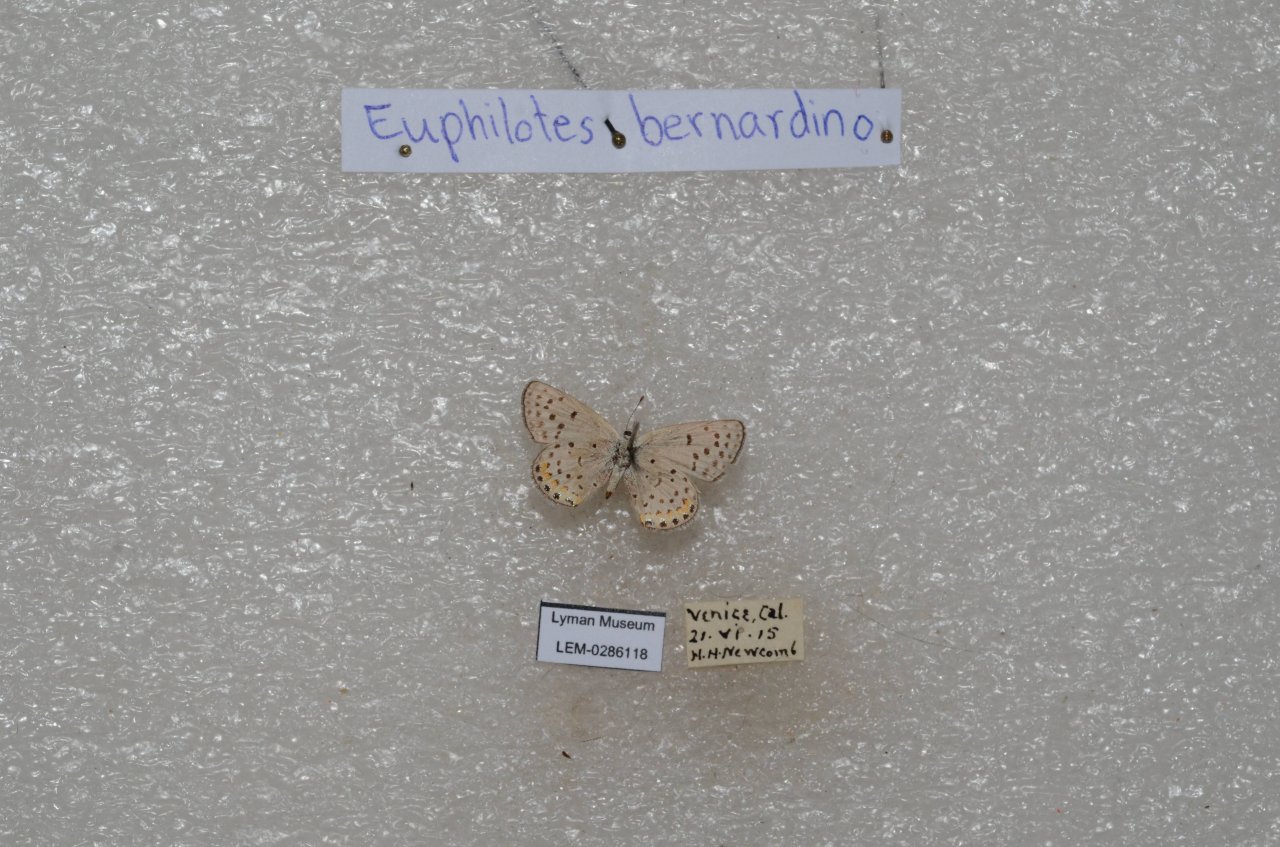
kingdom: Animalia
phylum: Arthropoda
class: Insecta
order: Lepidoptera
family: Lycaenidae
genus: Euphilotes
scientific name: Euphilotes battoides
